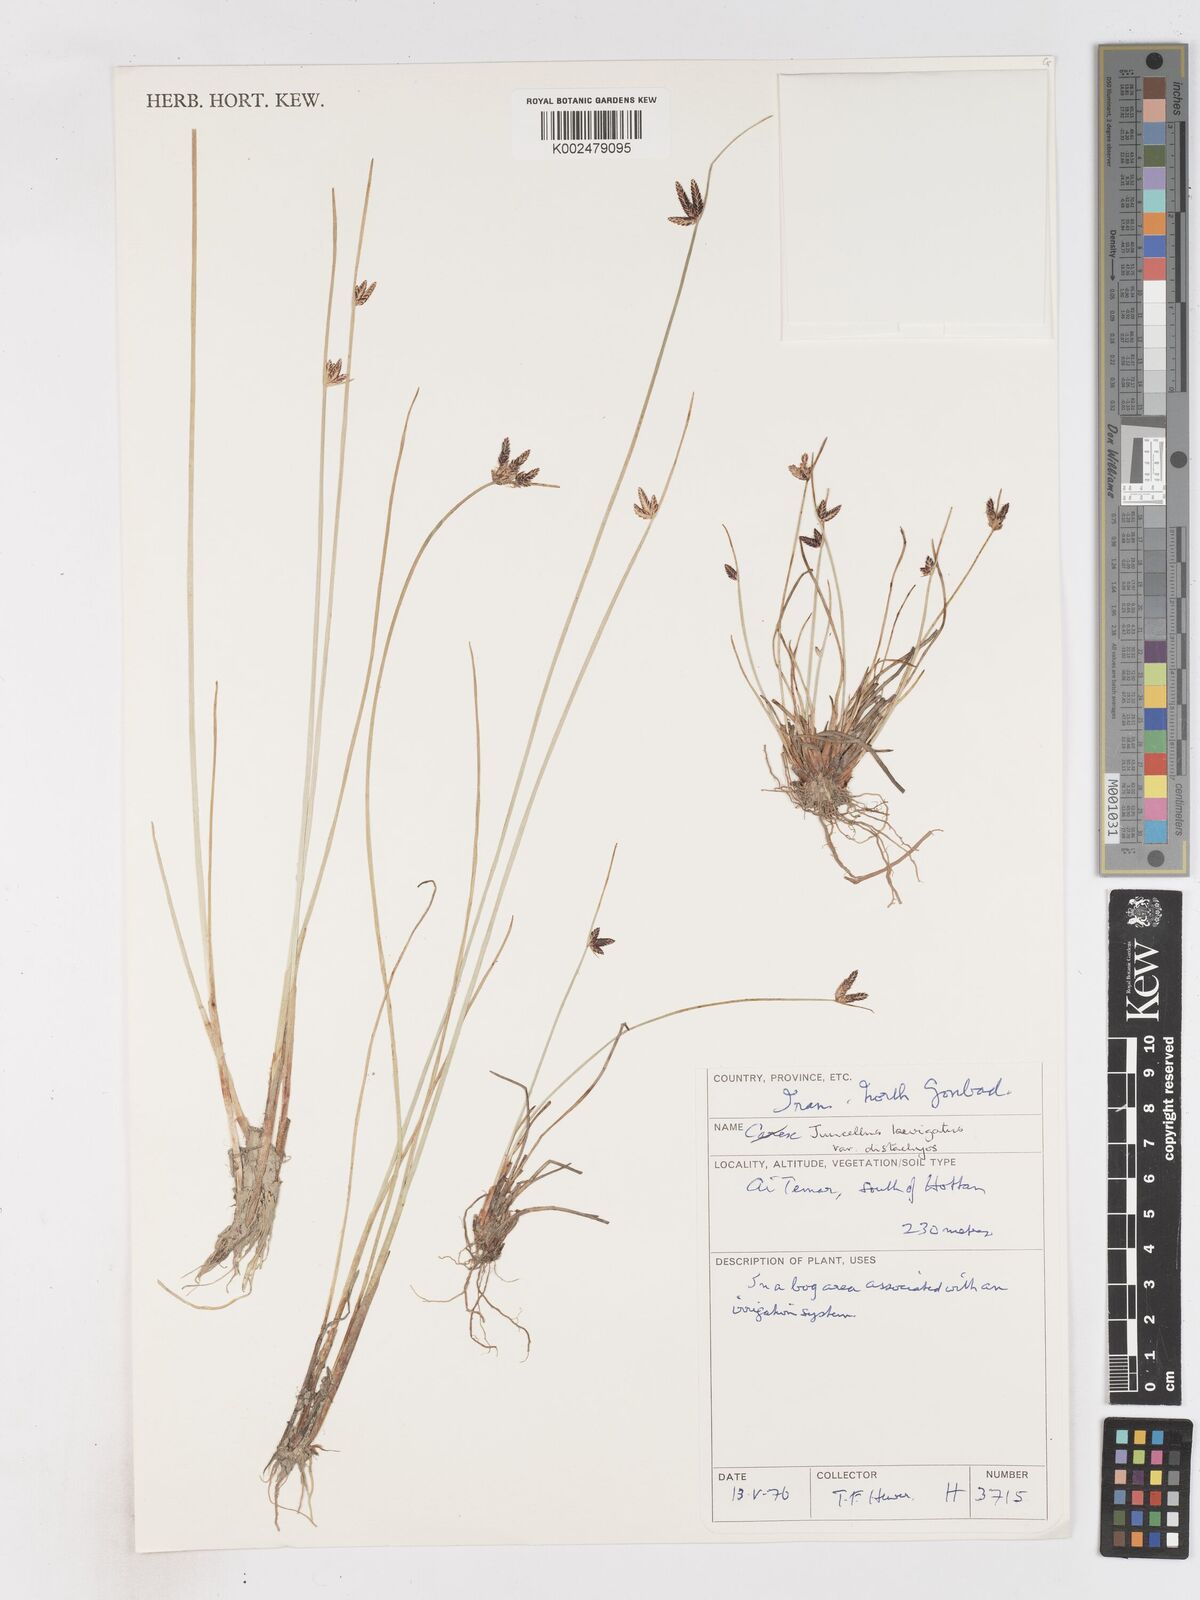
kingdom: Plantae
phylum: Tracheophyta
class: Liliopsida
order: Poales
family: Cyperaceae
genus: Cyperus
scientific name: Cyperus laevigatus
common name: Smooth flat sedge
